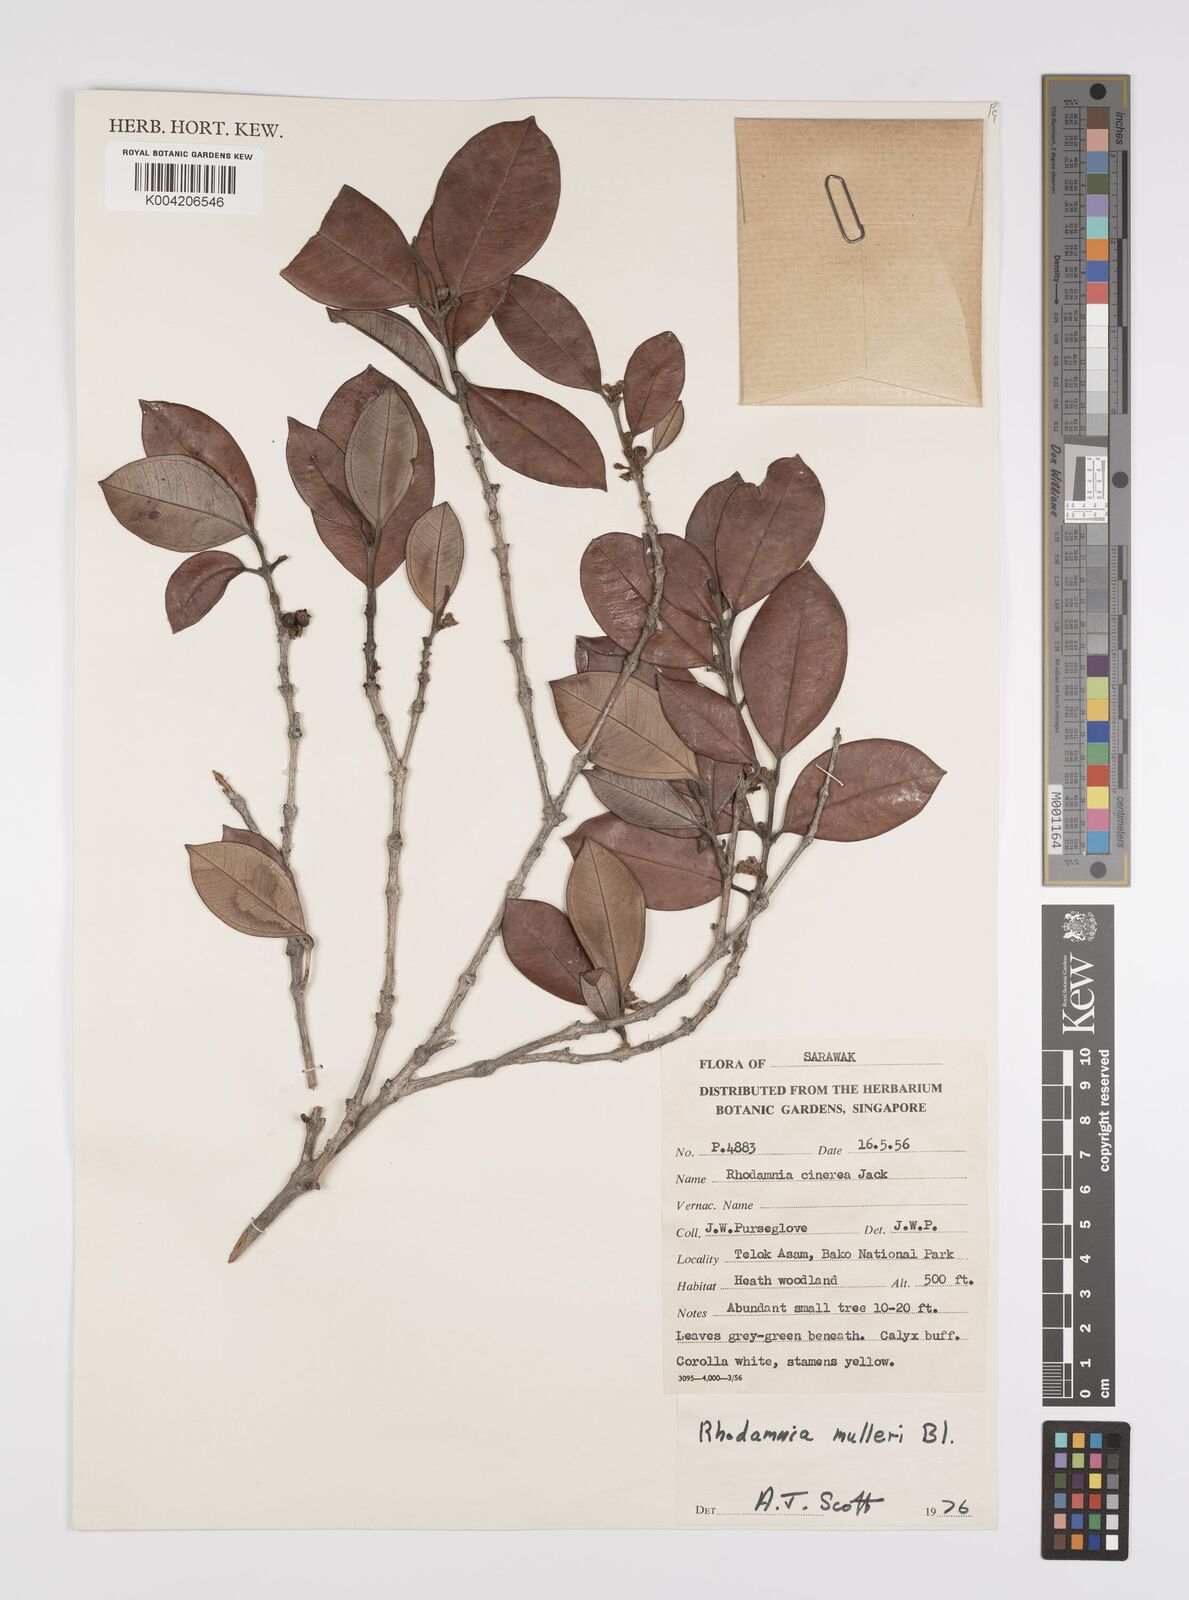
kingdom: Plantae
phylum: Tracheophyta
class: Magnoliopsida
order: Myrtales
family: Myrtaceae
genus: Rhodamnia
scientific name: Rhodamnia mulleri
